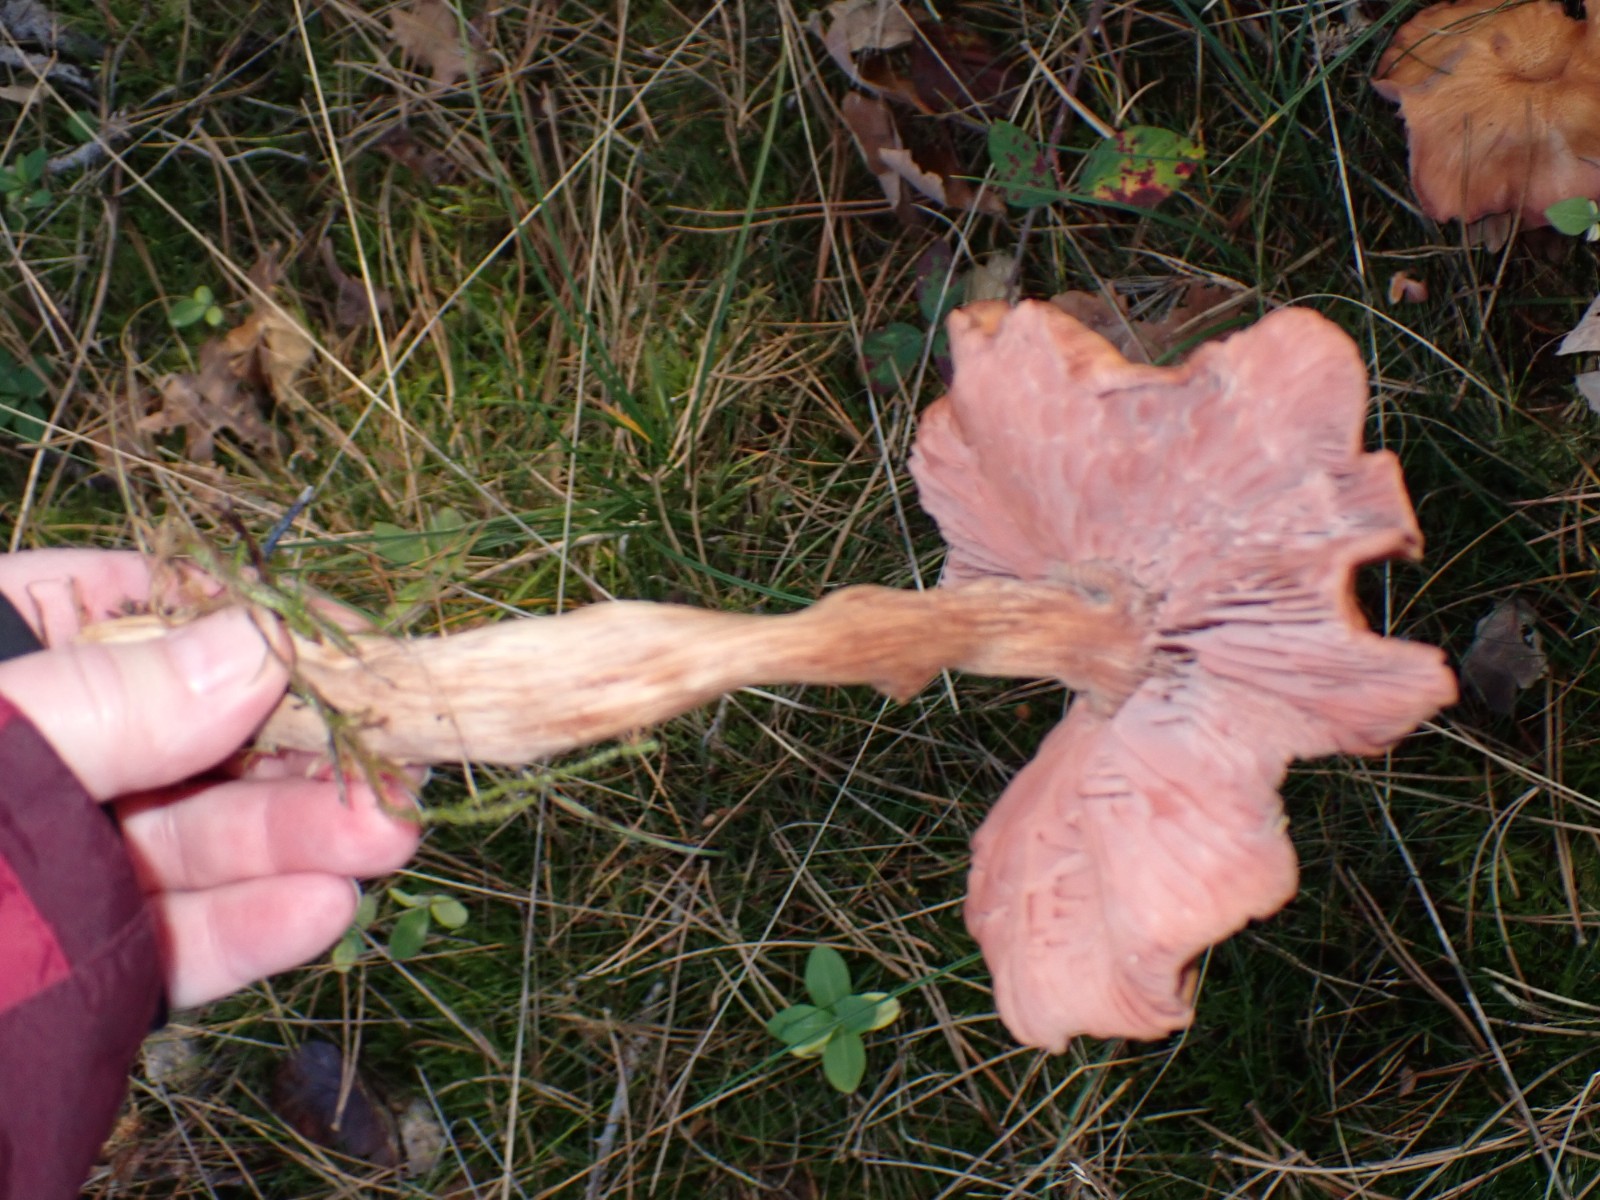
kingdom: Fungi
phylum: Basidiomycota
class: Agaricomycetes
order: Agaricales
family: Hydnangiaceae
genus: Laccaria
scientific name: Laccaria proxima
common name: stor ametysthat
